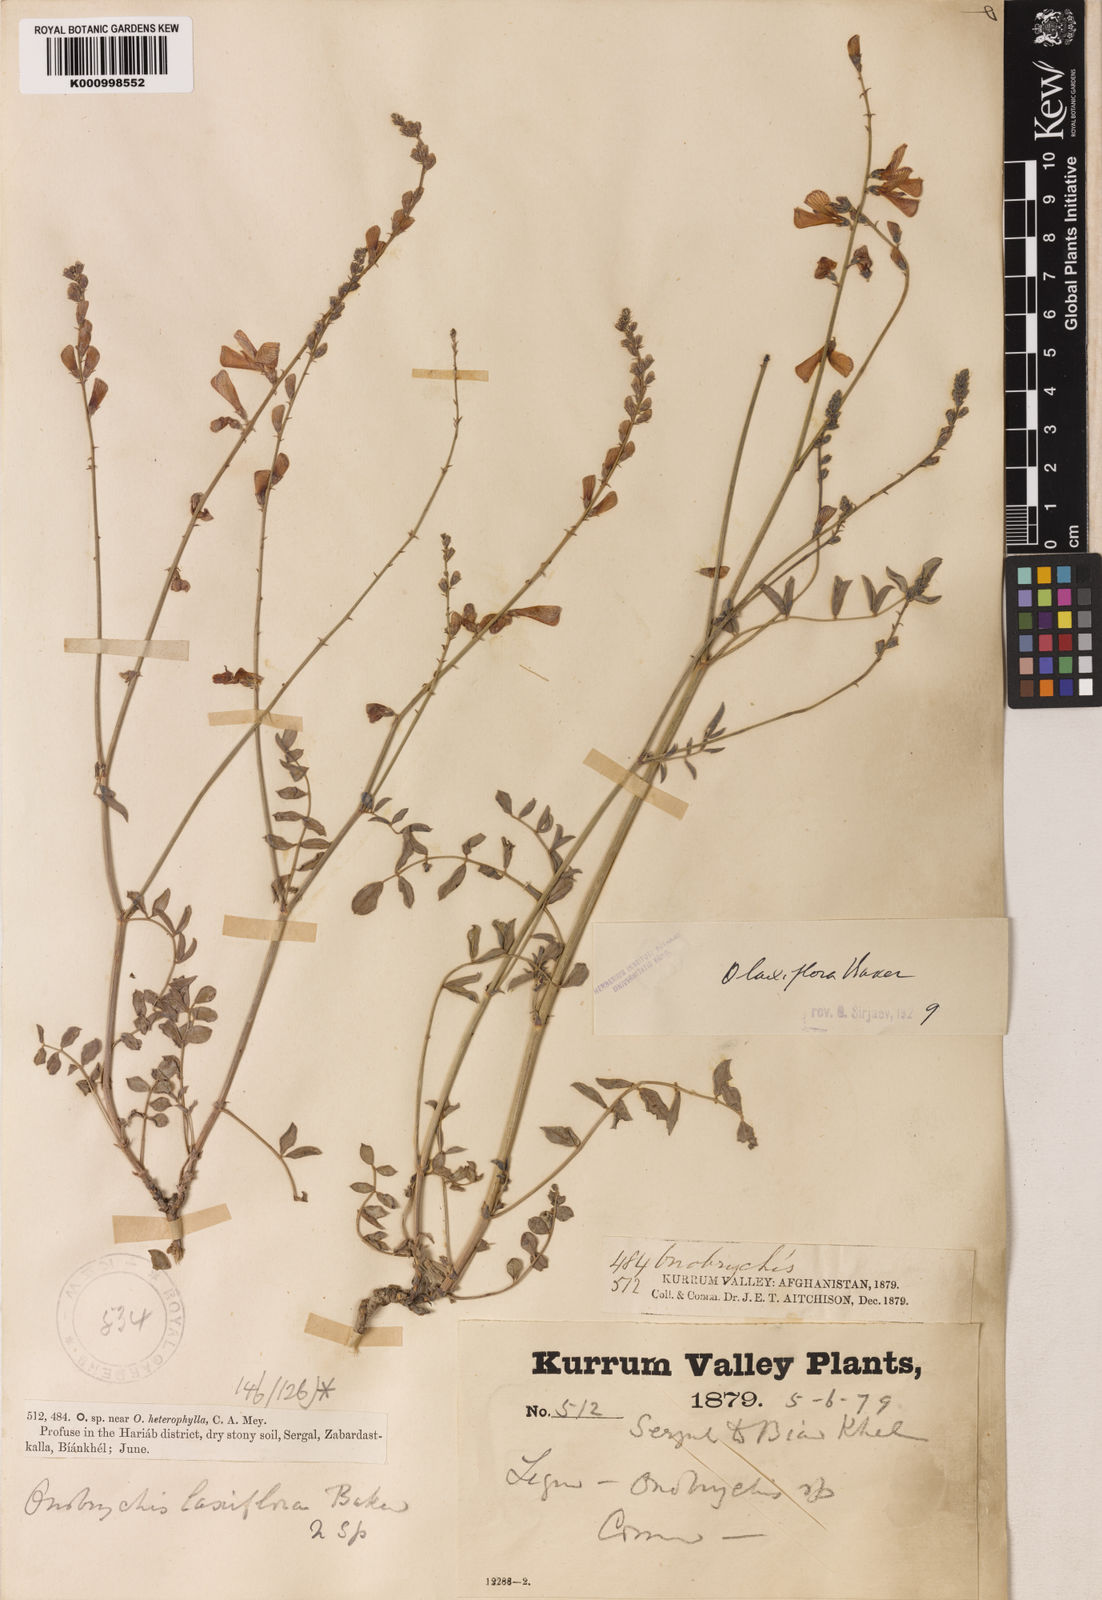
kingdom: Plantae
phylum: Tracheophyta
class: Magnoliopsida
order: Fabales
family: Fabaceae
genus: Onobrychis
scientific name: Onobrychis laxiflora
